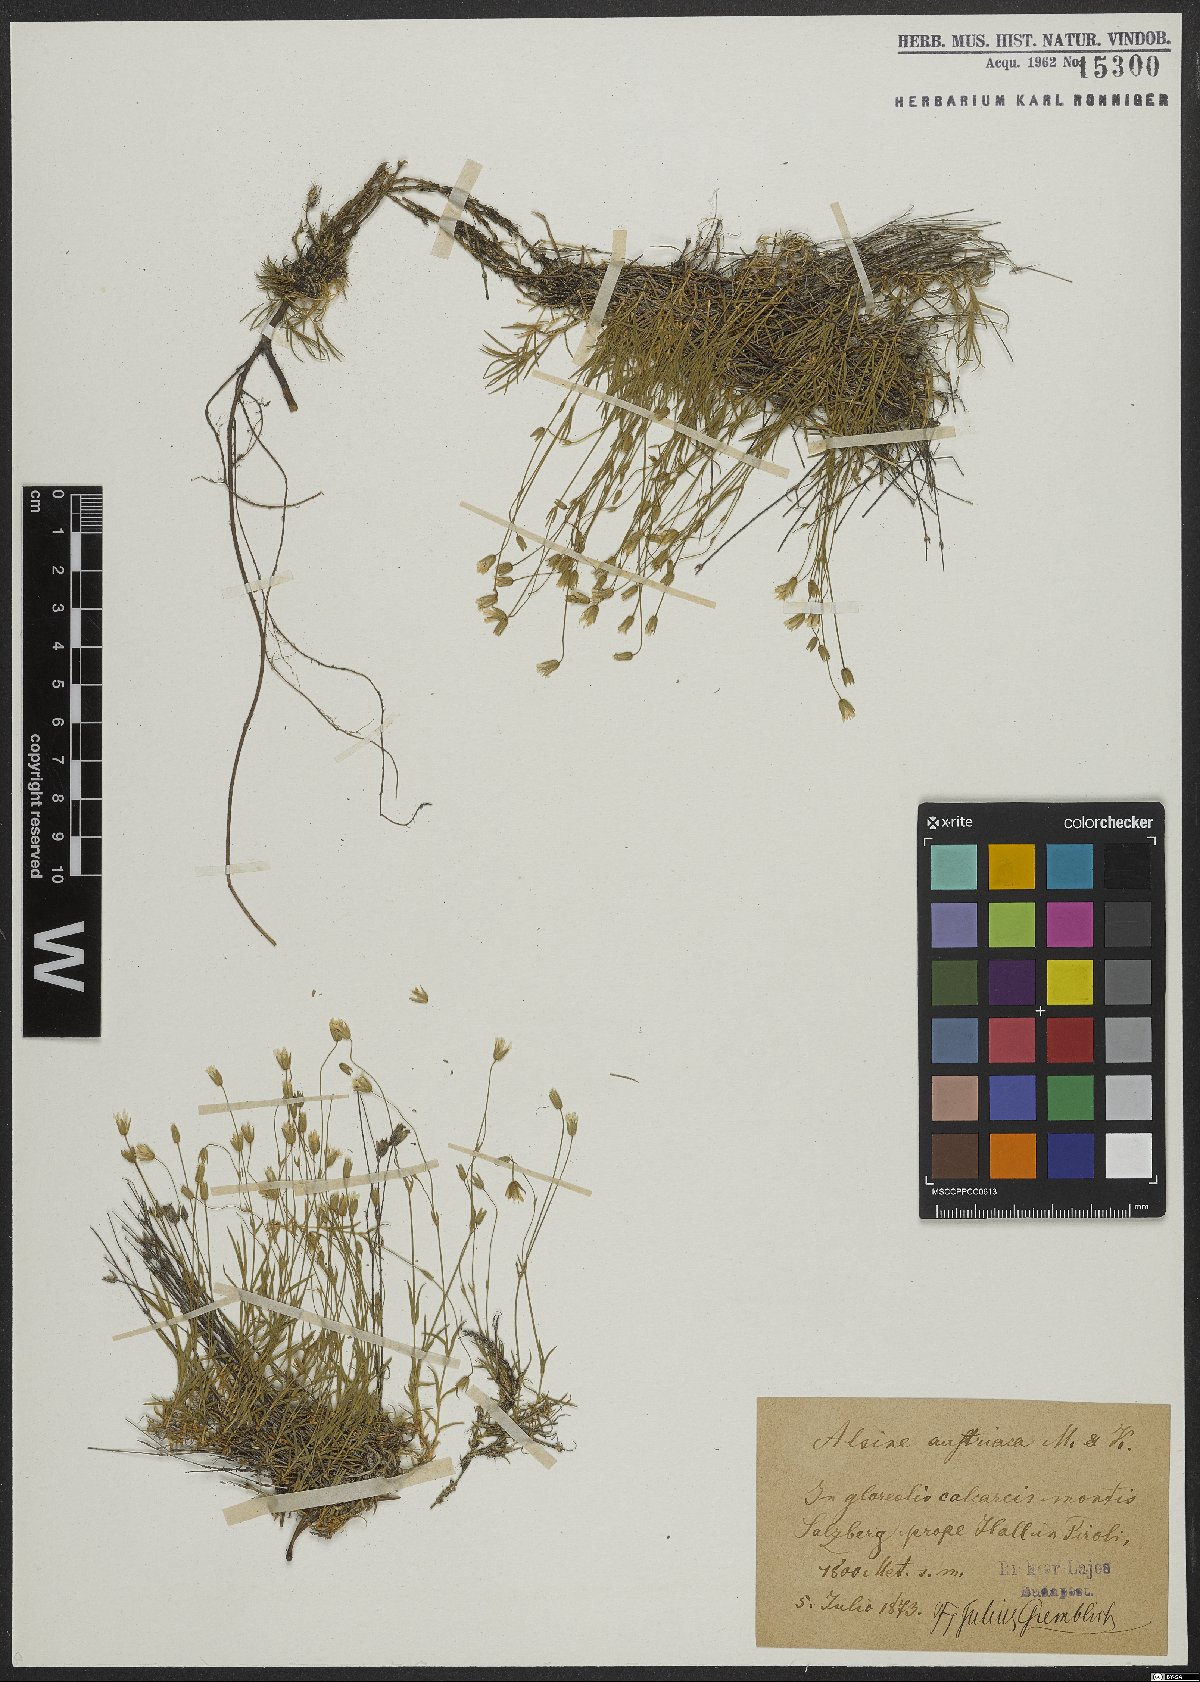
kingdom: Plantae
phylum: Tracheophyta
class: Magnoliopsida
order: Caryophyllales
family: Caryophyllaceae
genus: Sabulina
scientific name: Sabulina austriaca
